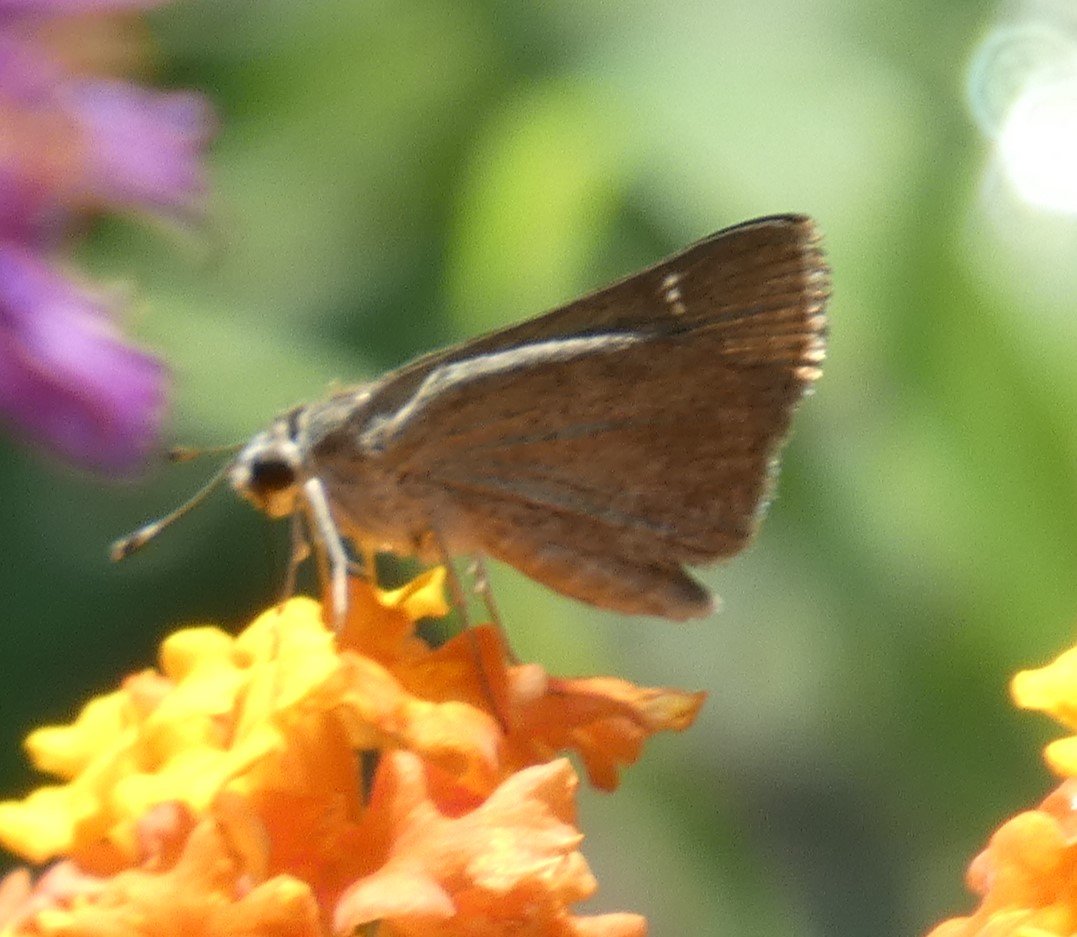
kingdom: Animalia
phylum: Arthropoda
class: Insecta
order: Lepidoptera
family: Hesperiidae
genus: Lerodea
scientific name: Lerodea eufala
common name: Eufala Skipper
